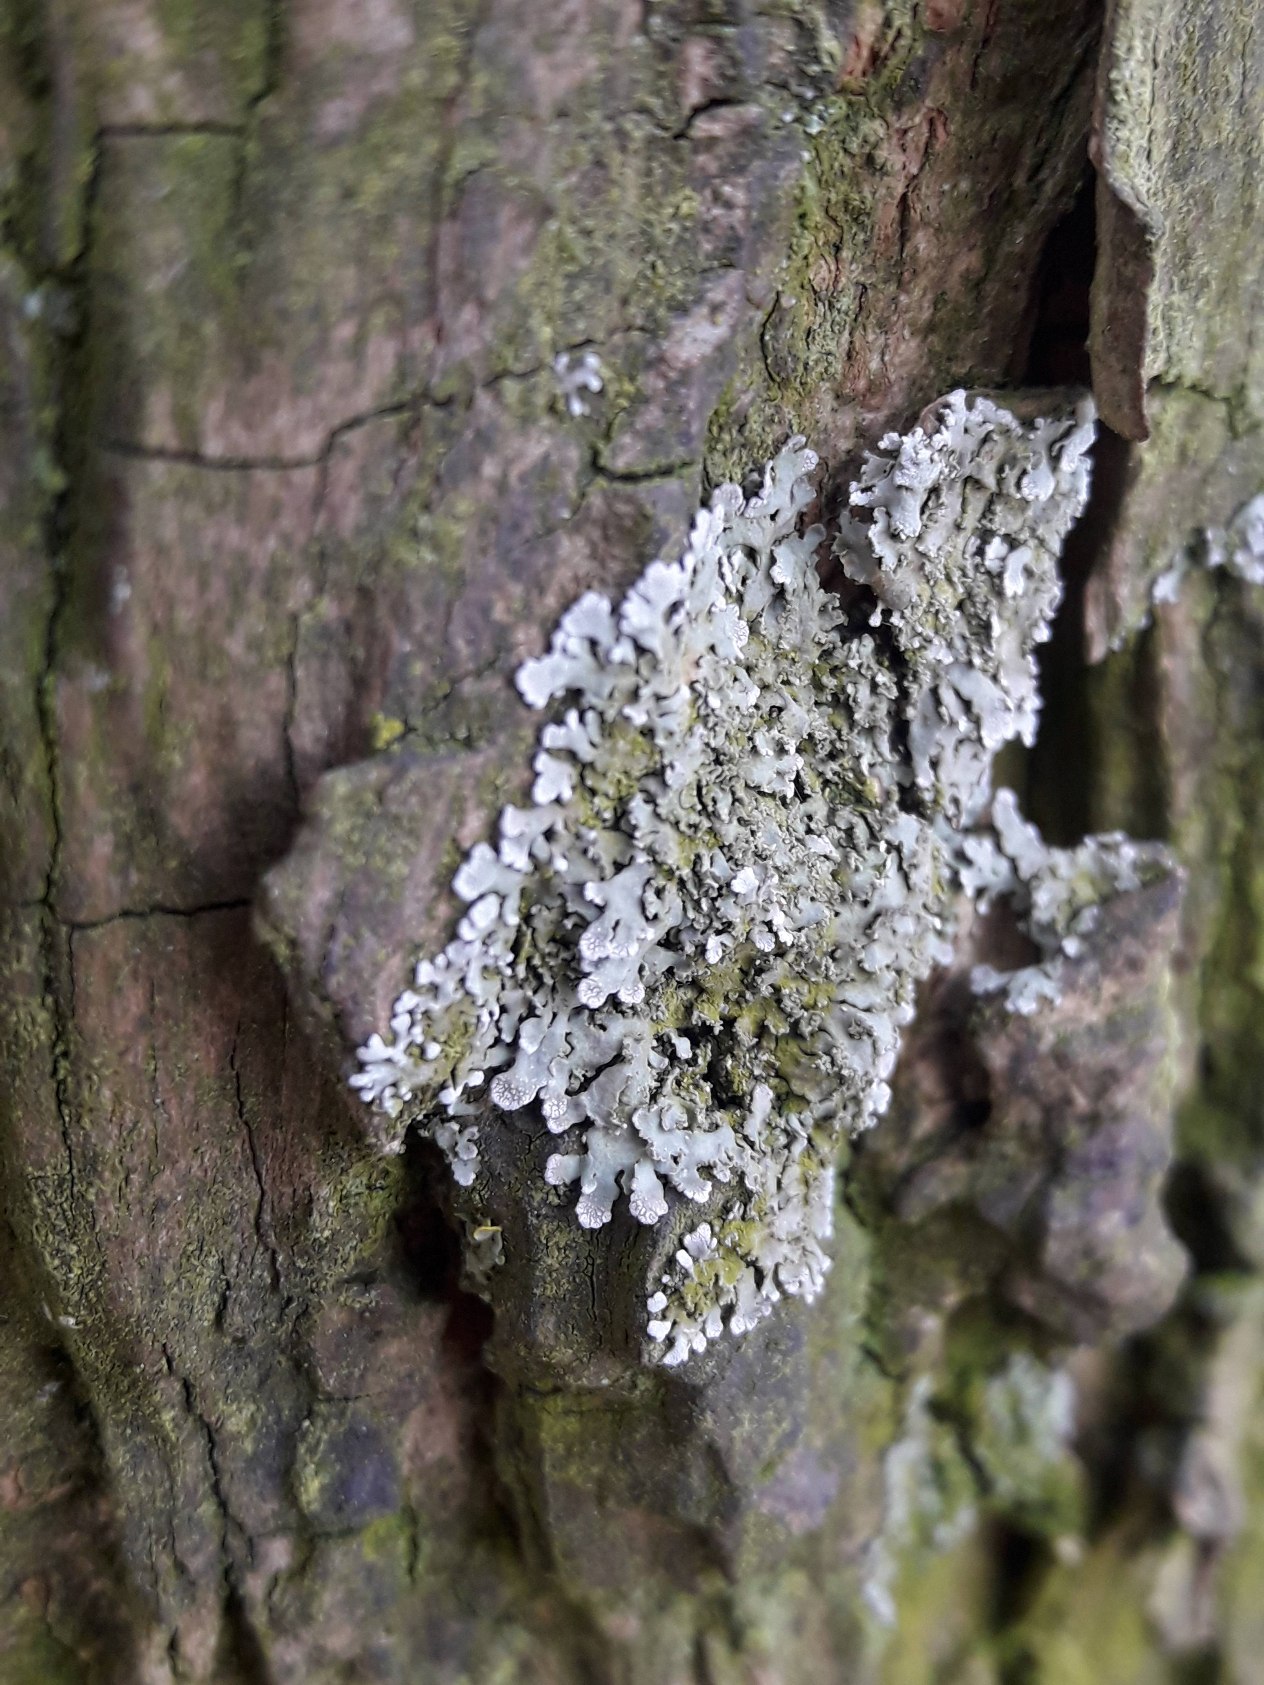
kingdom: Fungi
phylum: Ascomycota
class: Lecanoromycetes
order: Caliciales
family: Physciaceae
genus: Physconia
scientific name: Physconia
